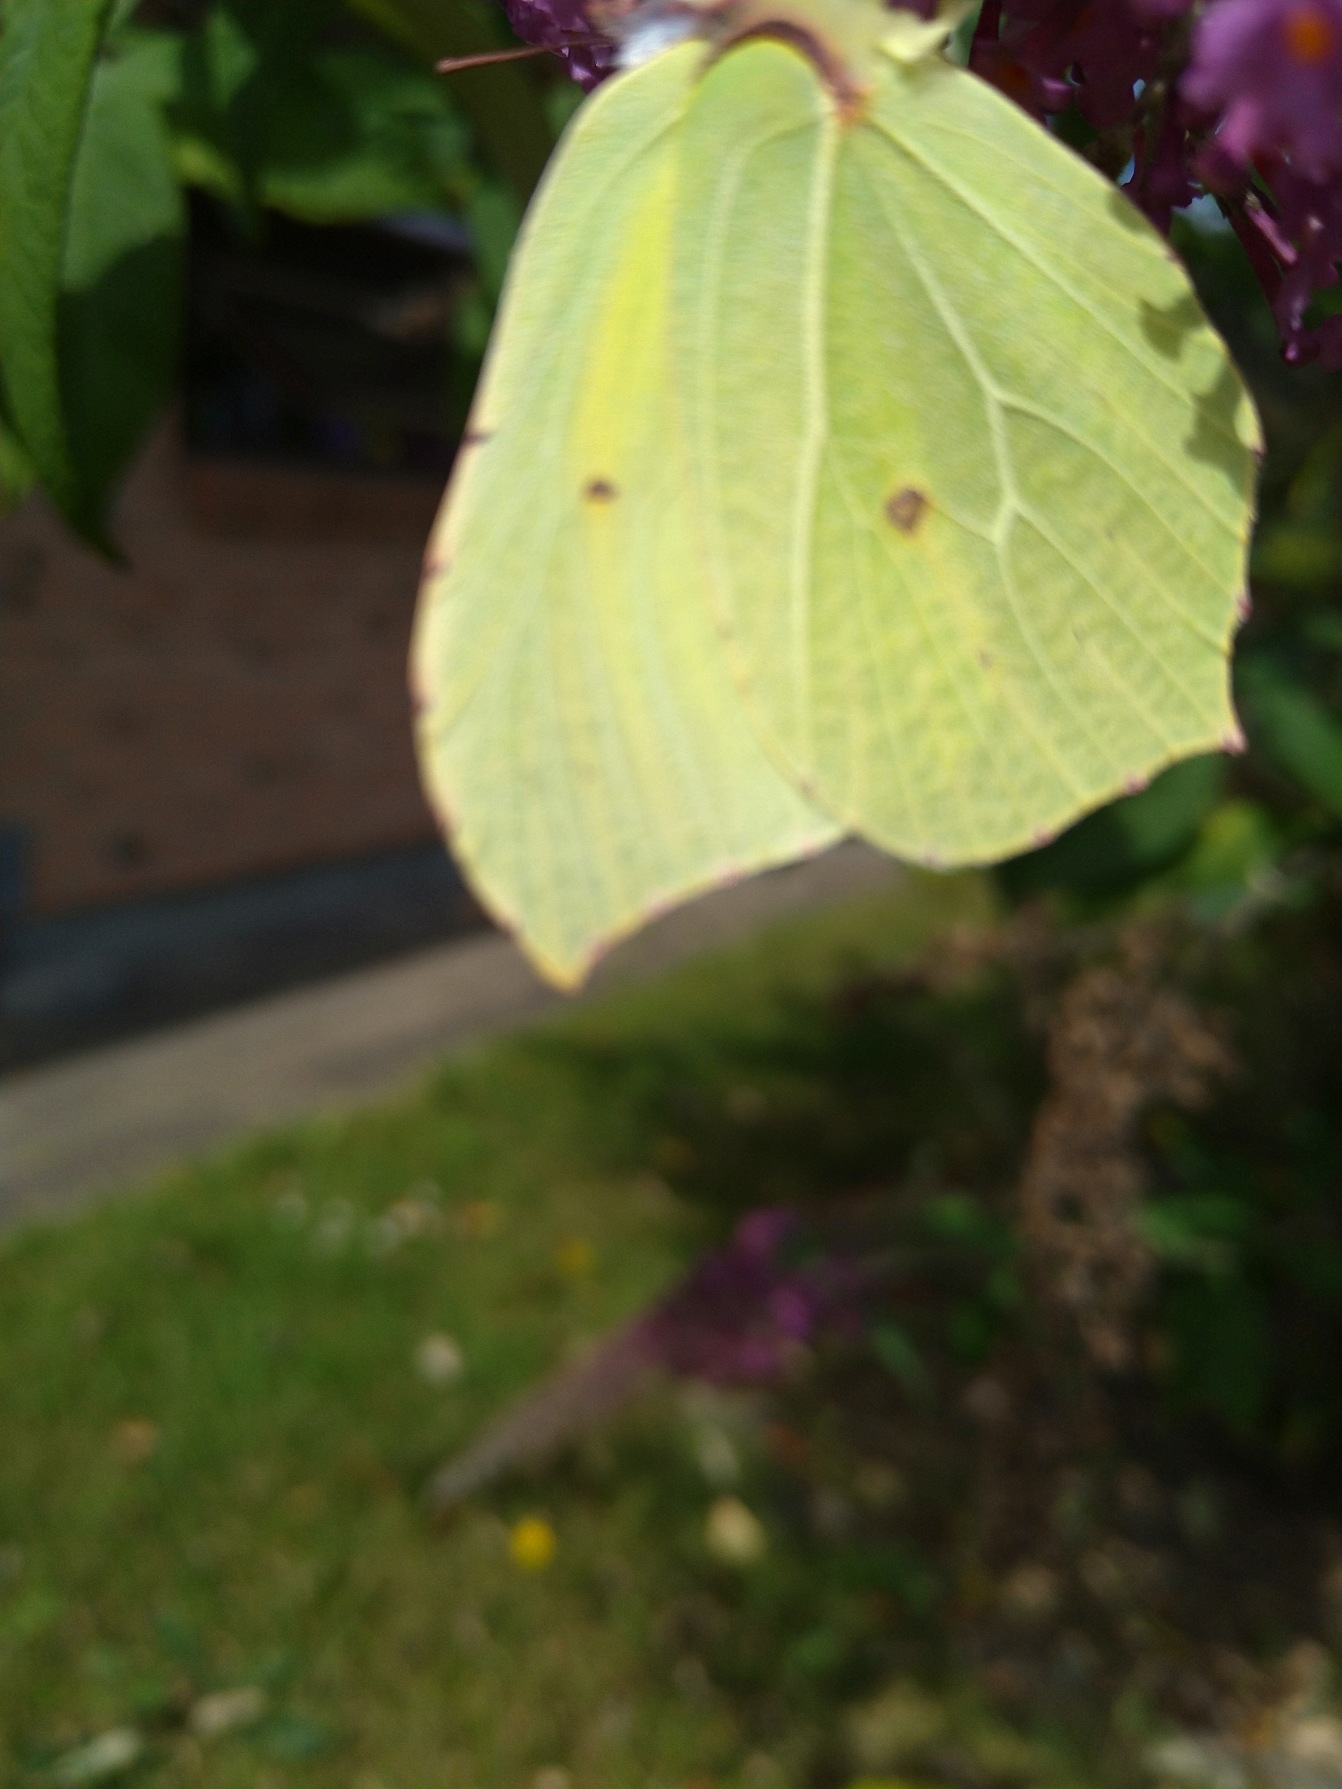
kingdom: Animalia
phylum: Arthropoda
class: Insecta
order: Lepidoptera
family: Pieridae
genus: Gonepteryx
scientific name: Gonepteryx rhamni
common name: Citronsommerfugl
